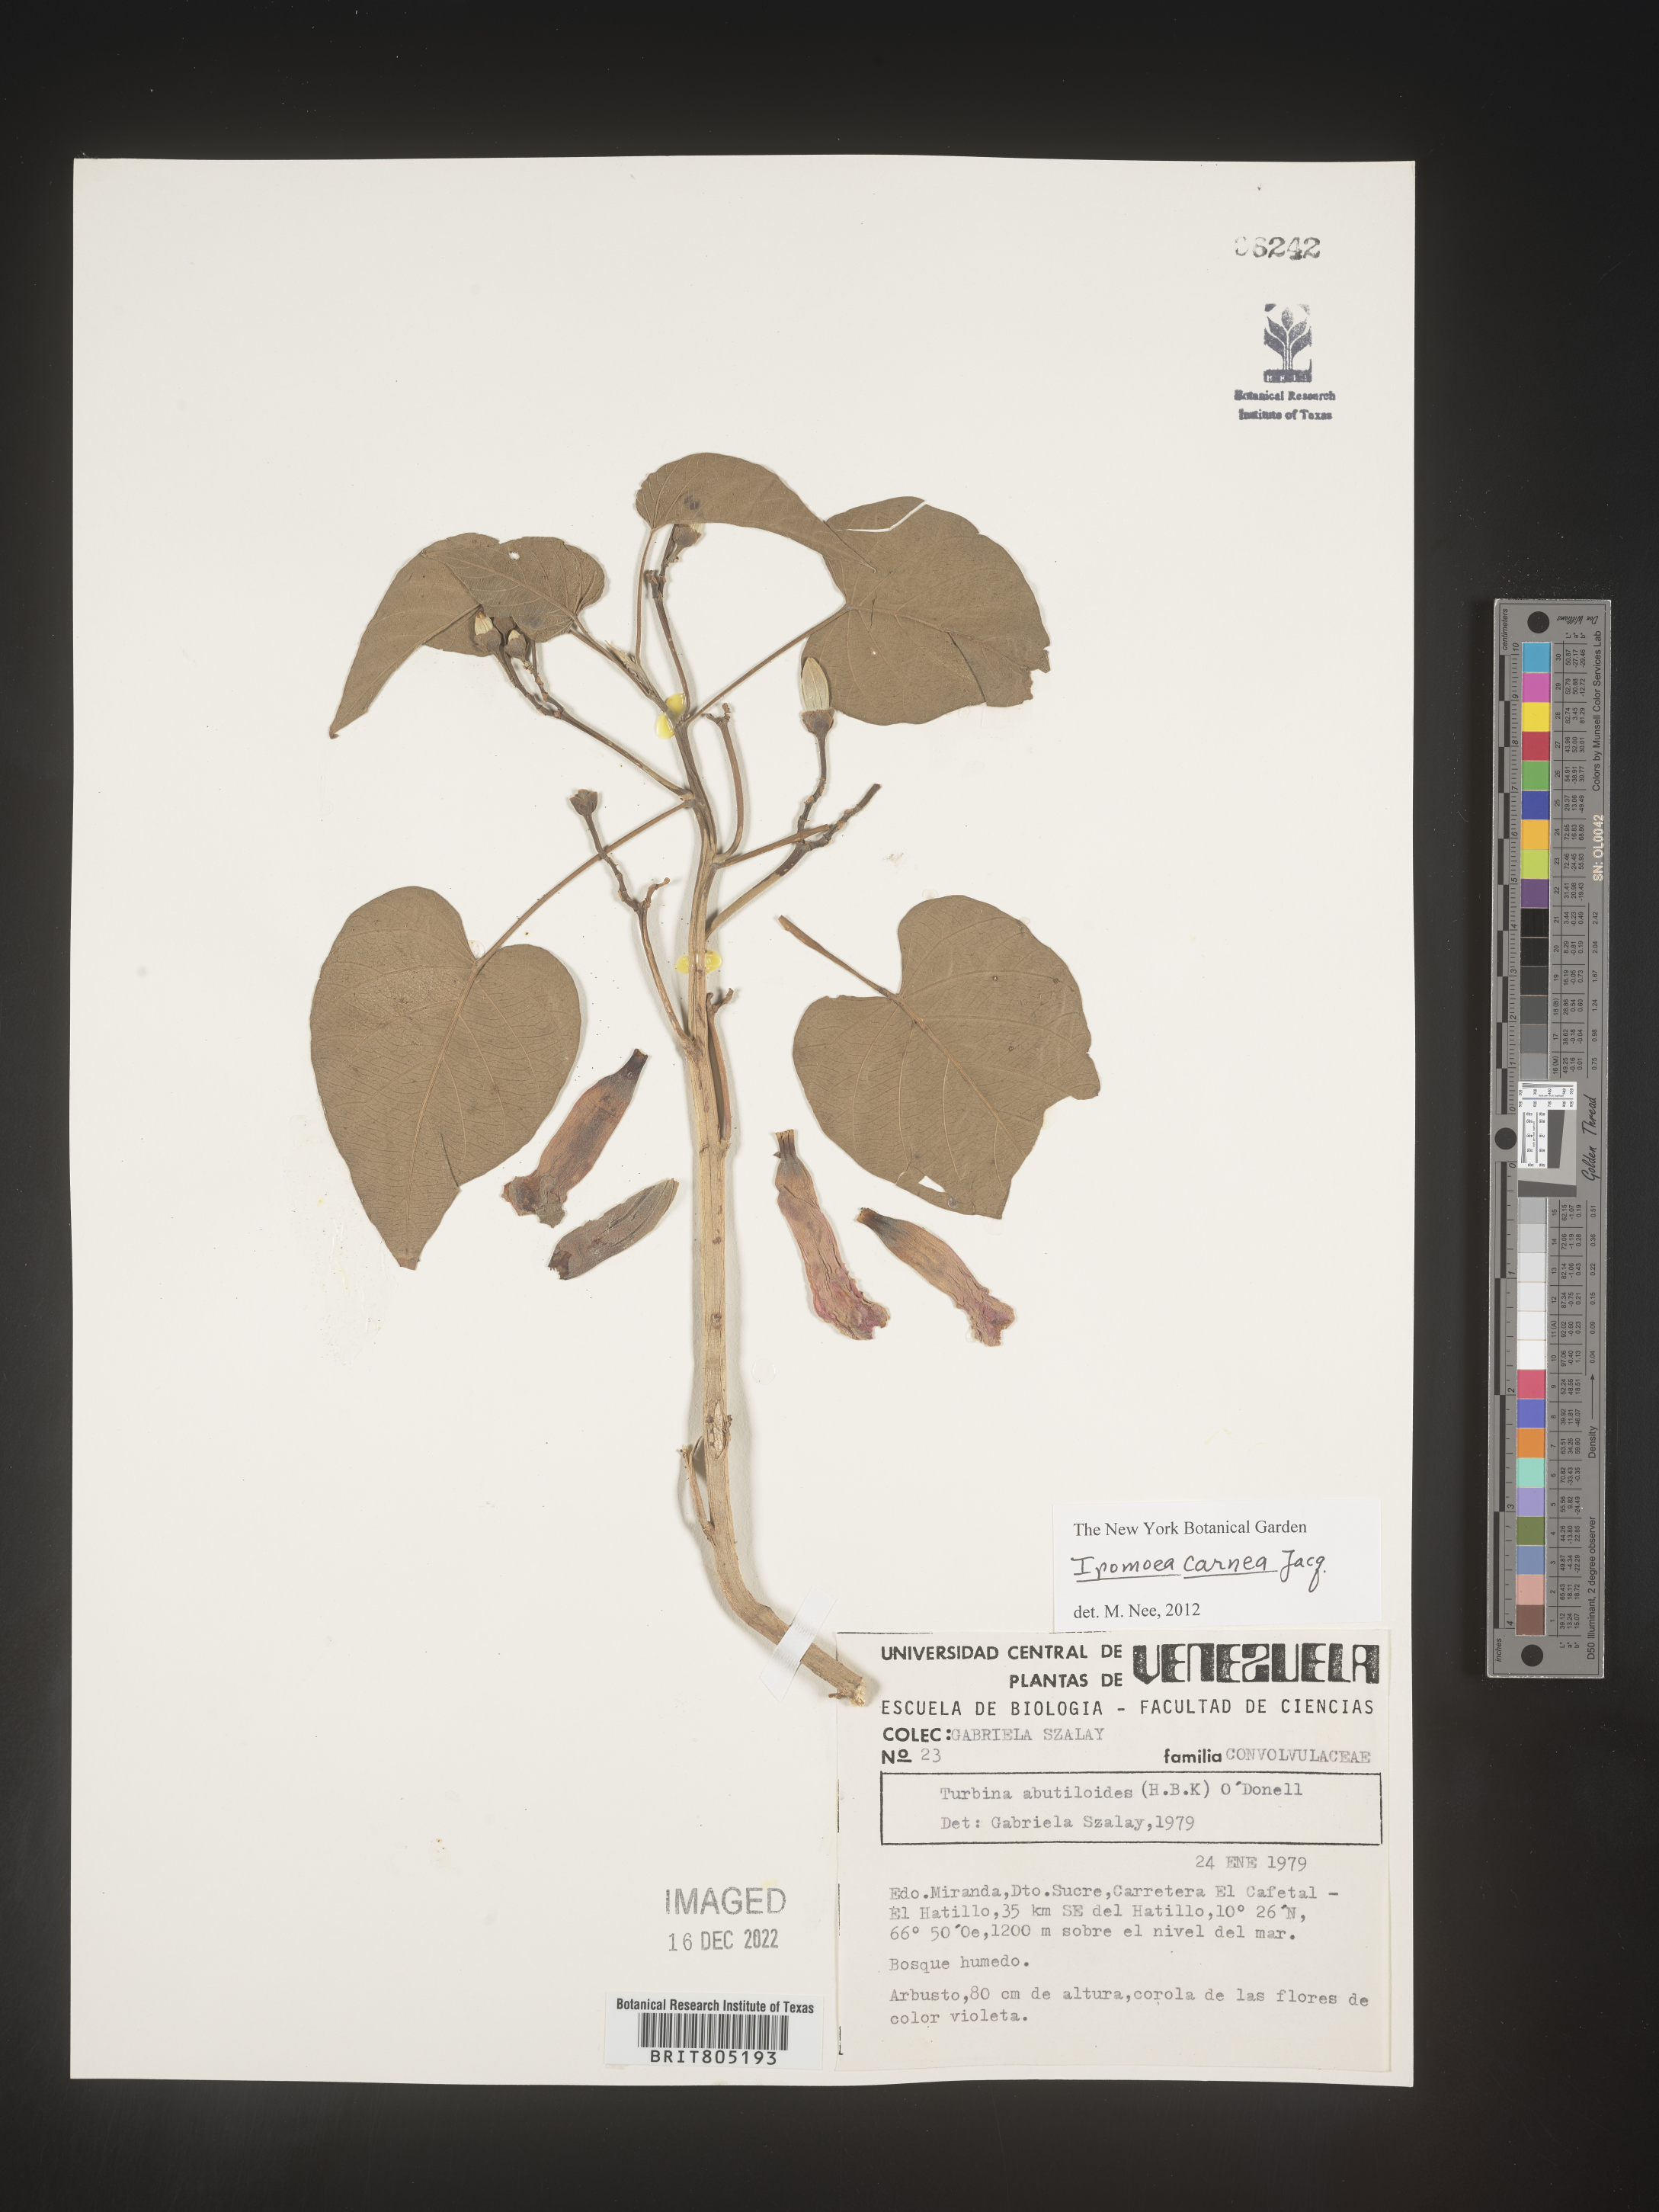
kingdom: Plantae
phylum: Tracheophyta
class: Magnoliopsida
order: Solanales
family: Convolvulaceae
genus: Ipomoea
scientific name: Ipomoea
